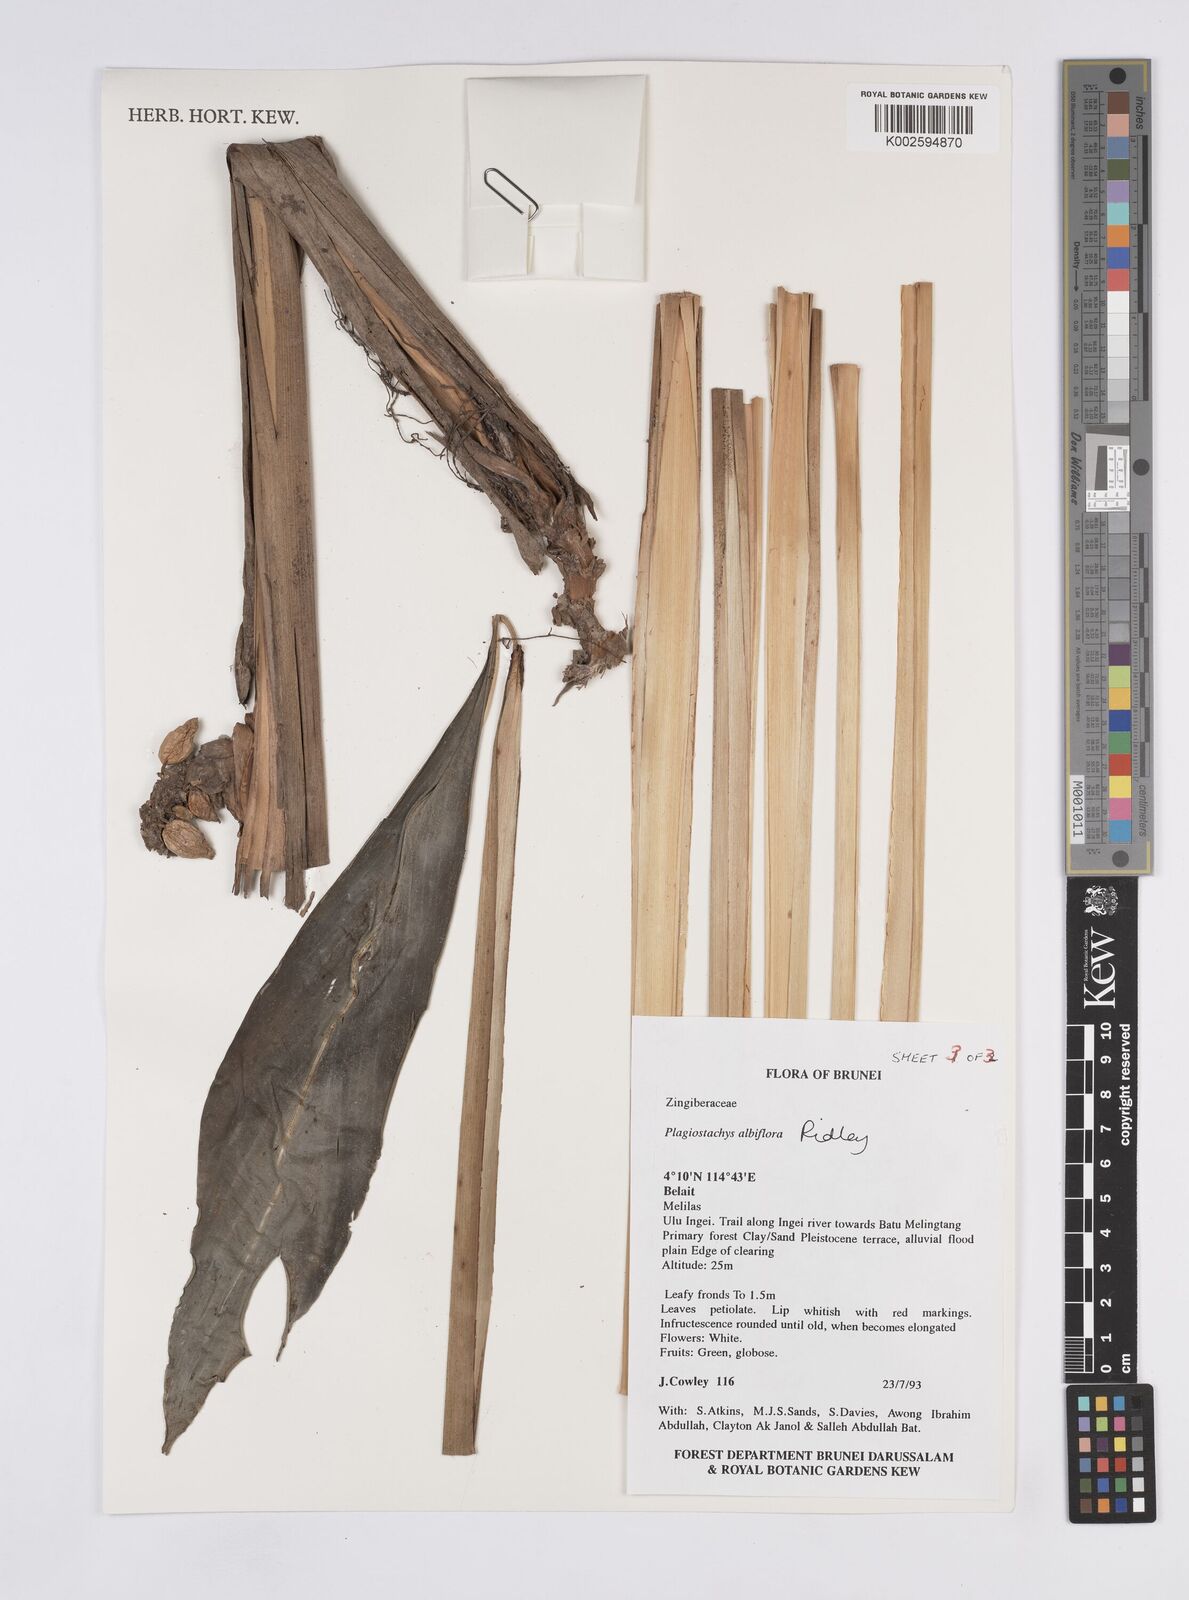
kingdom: Plantae
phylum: Tracheophyta
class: Liliopsida
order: Zingiberales
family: Zingiberaceae
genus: Plagiostachys
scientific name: Plagiostachys albiflora
